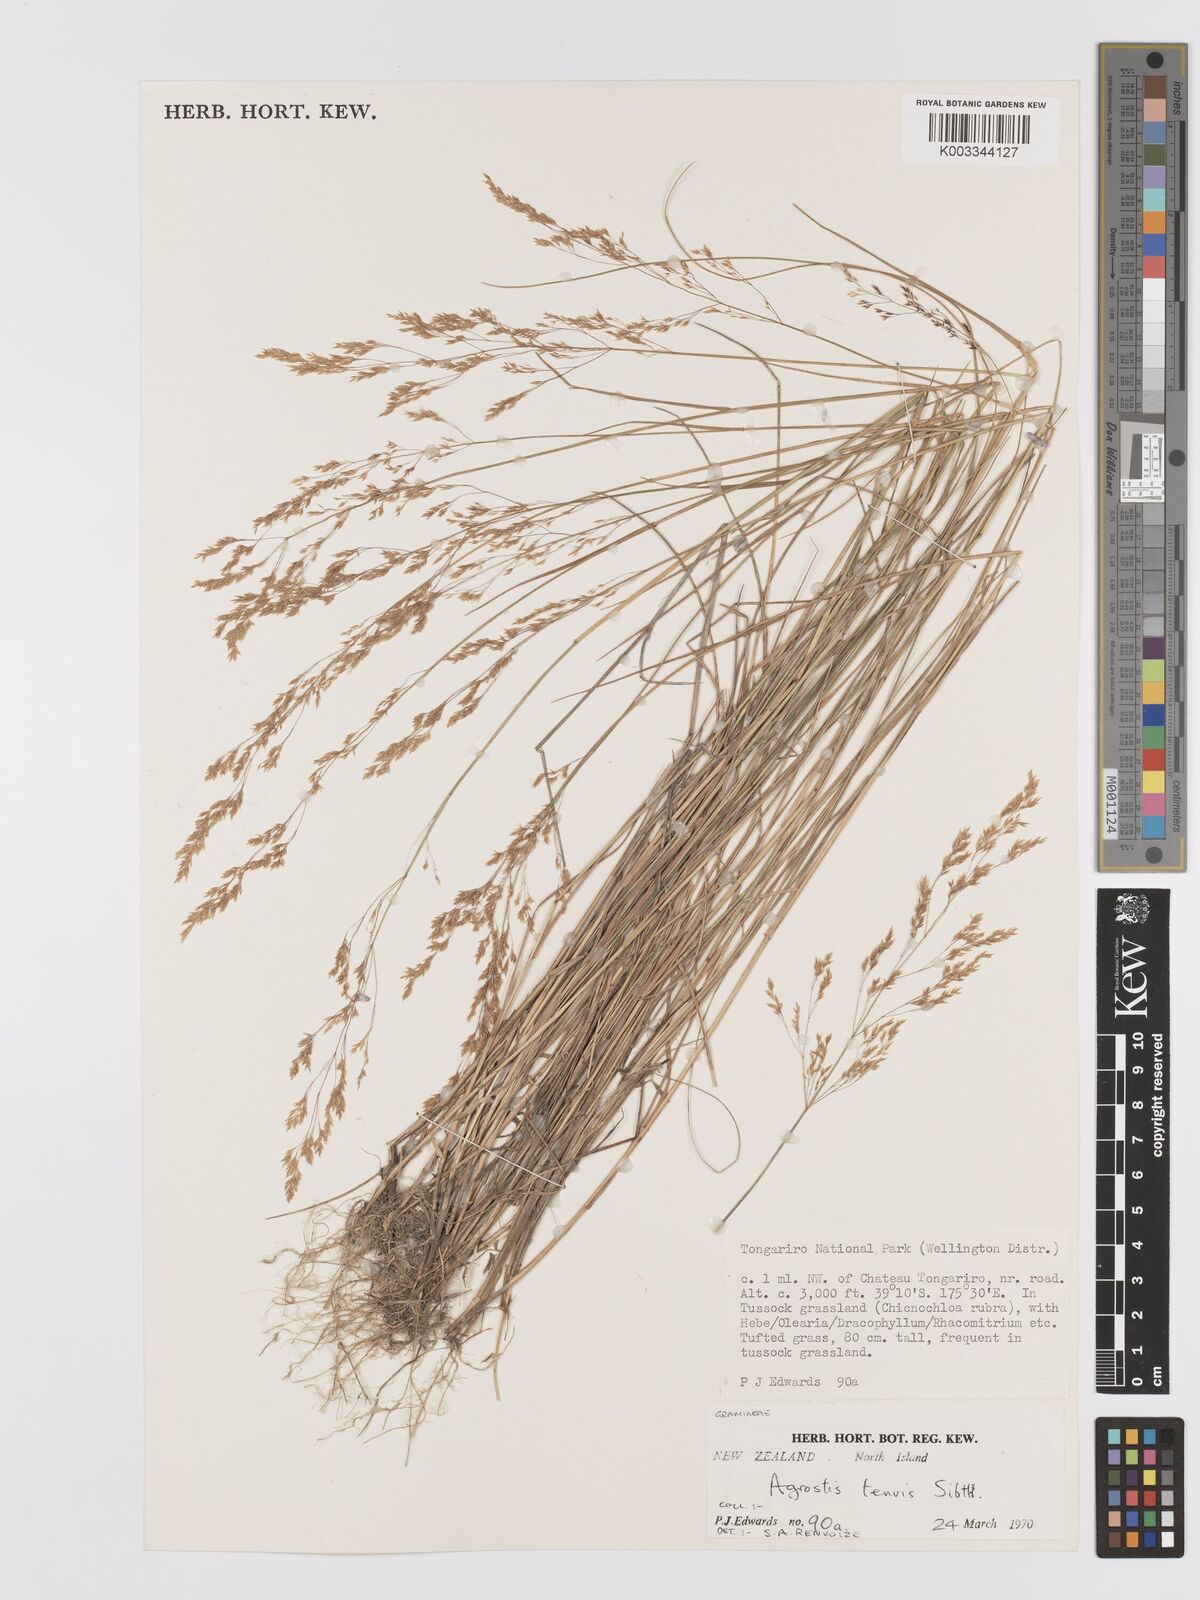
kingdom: Plantae
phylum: Tracheophyta
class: Liliopsida
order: Poales
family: Poaceae
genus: Agrostis
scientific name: Agrostis capillaris
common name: Colonial bentgrass
